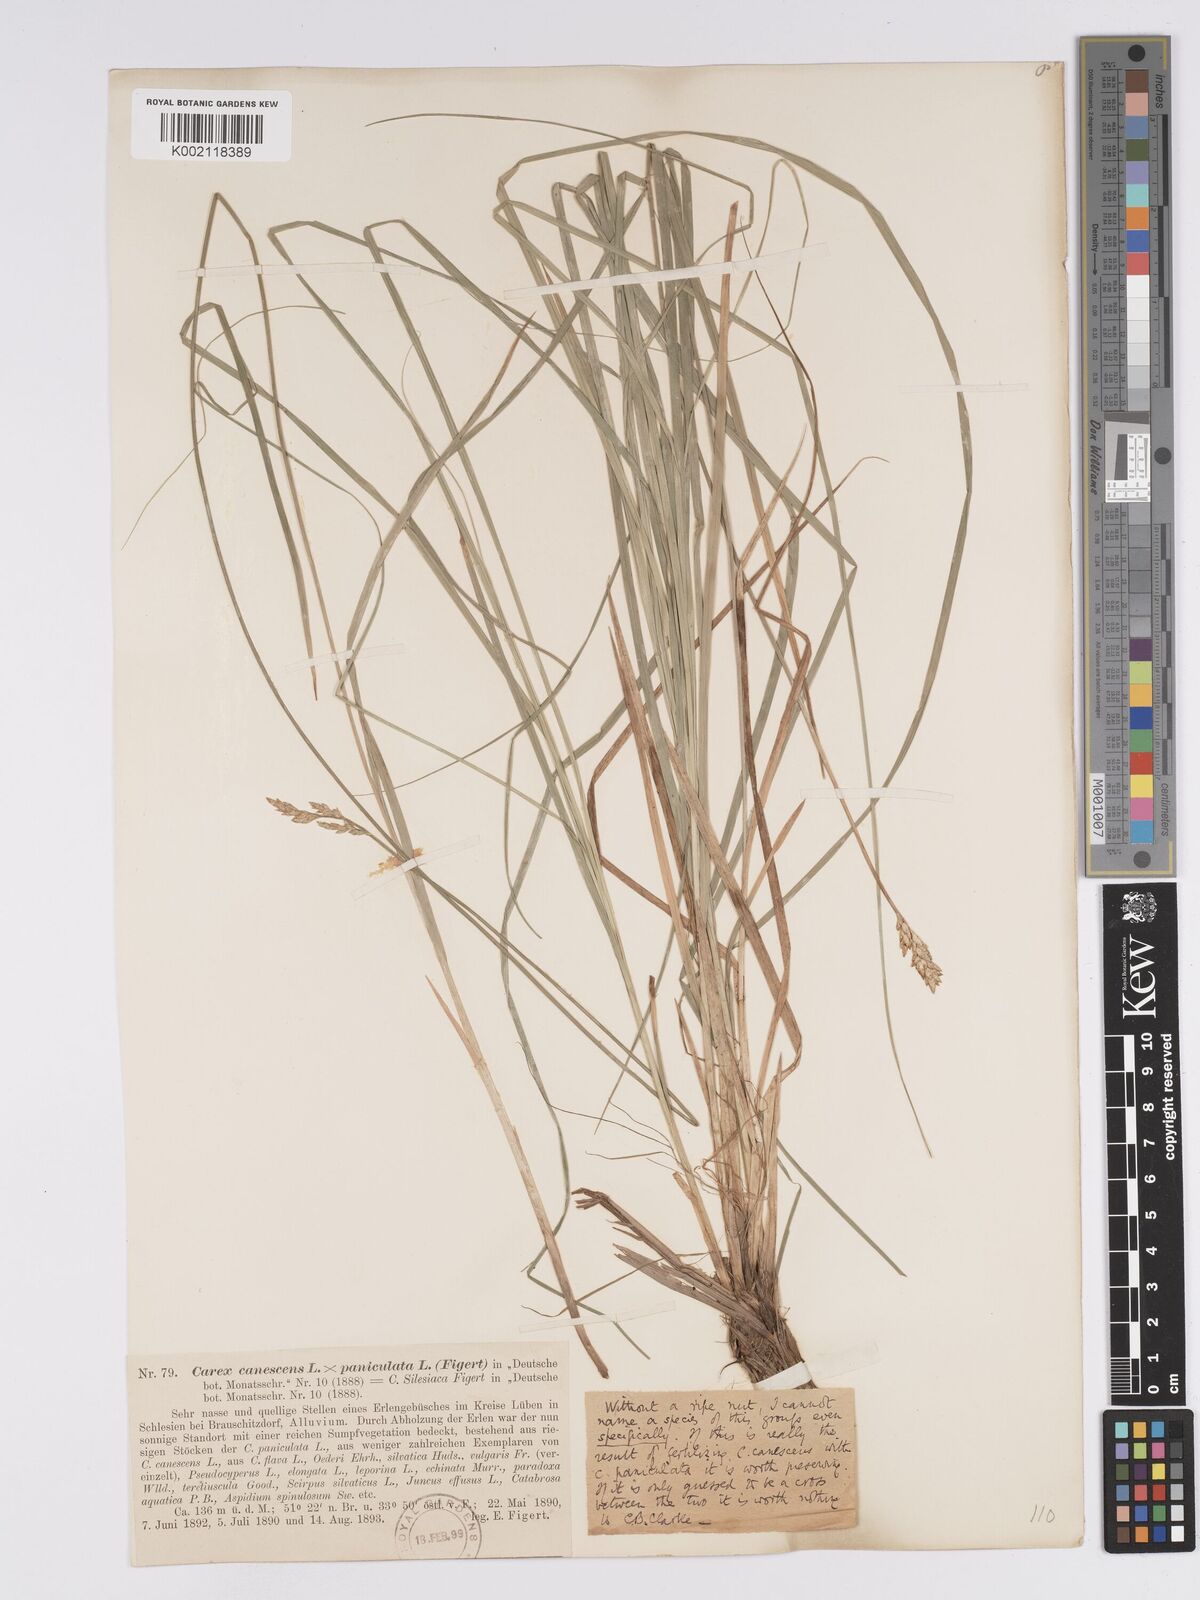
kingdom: Plantae
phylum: Tracheophyta
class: Liliopsida
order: Poales
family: Cyperaceae
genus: Carex
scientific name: Carex paniculata
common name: Greater tussock-sedge
